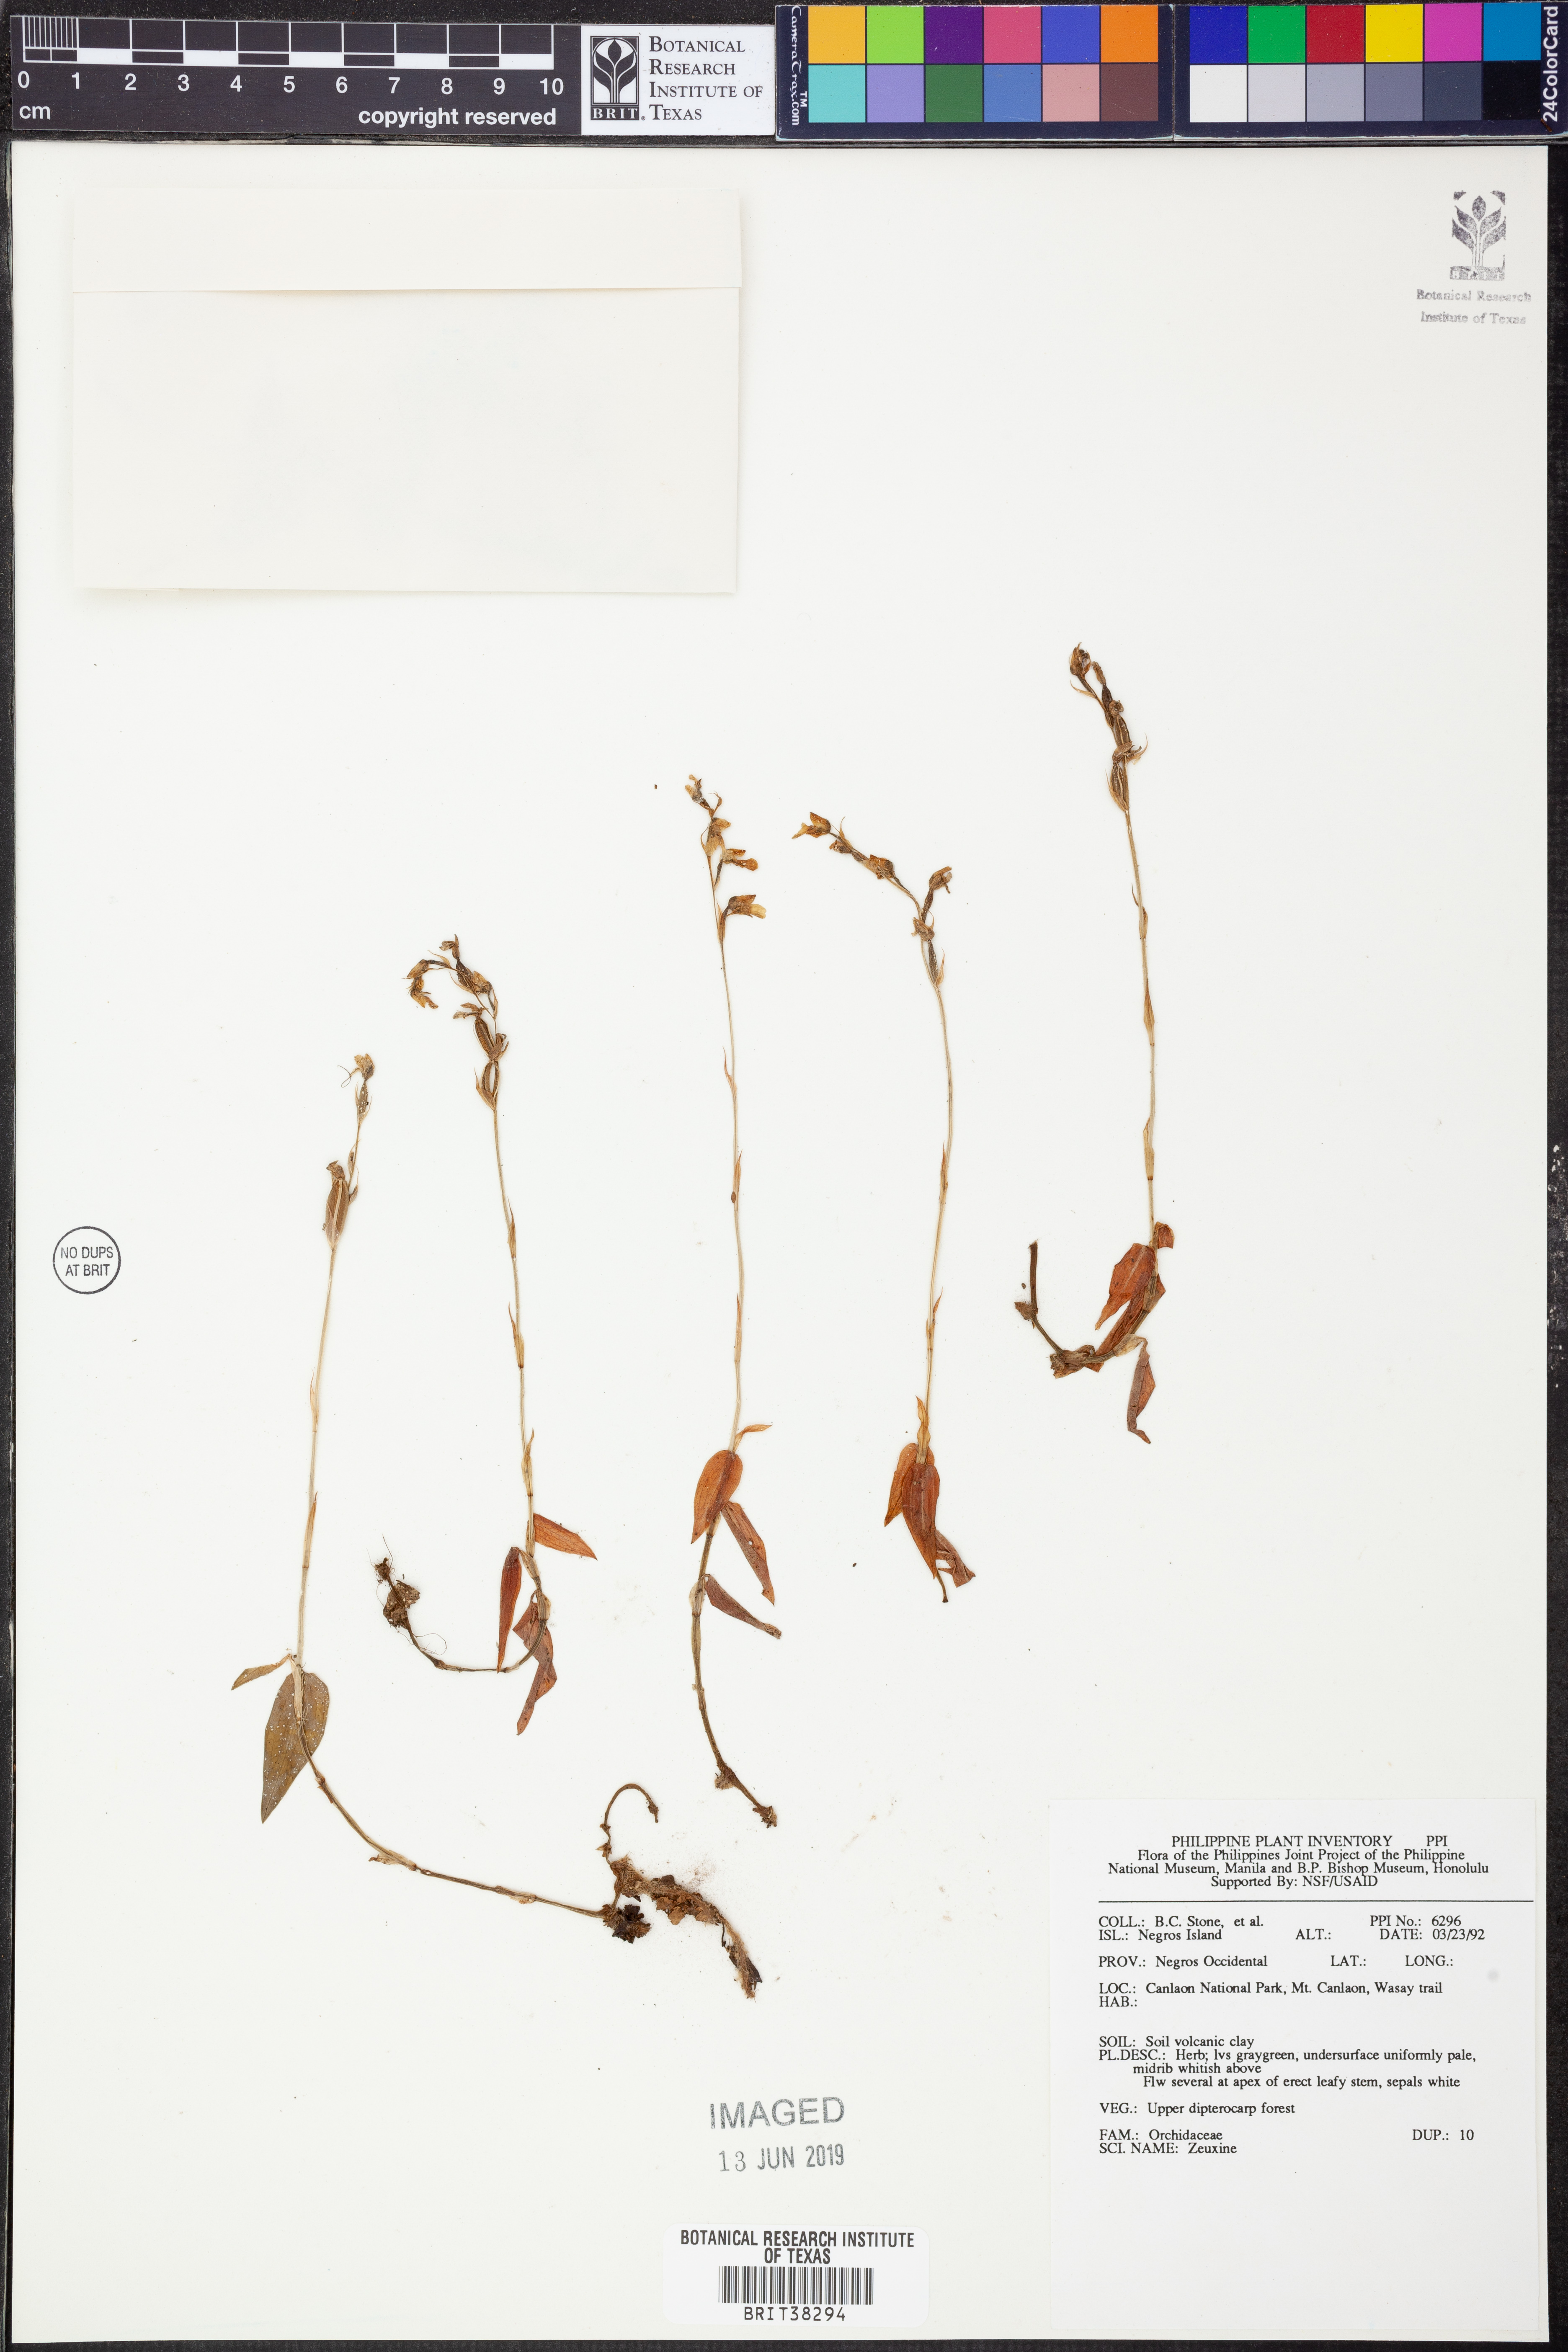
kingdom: Plantae
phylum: Tracheophyta
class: Liliopsida
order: Asparagales
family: Orchidaceae
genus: Zeuxine
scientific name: Zeuxine
